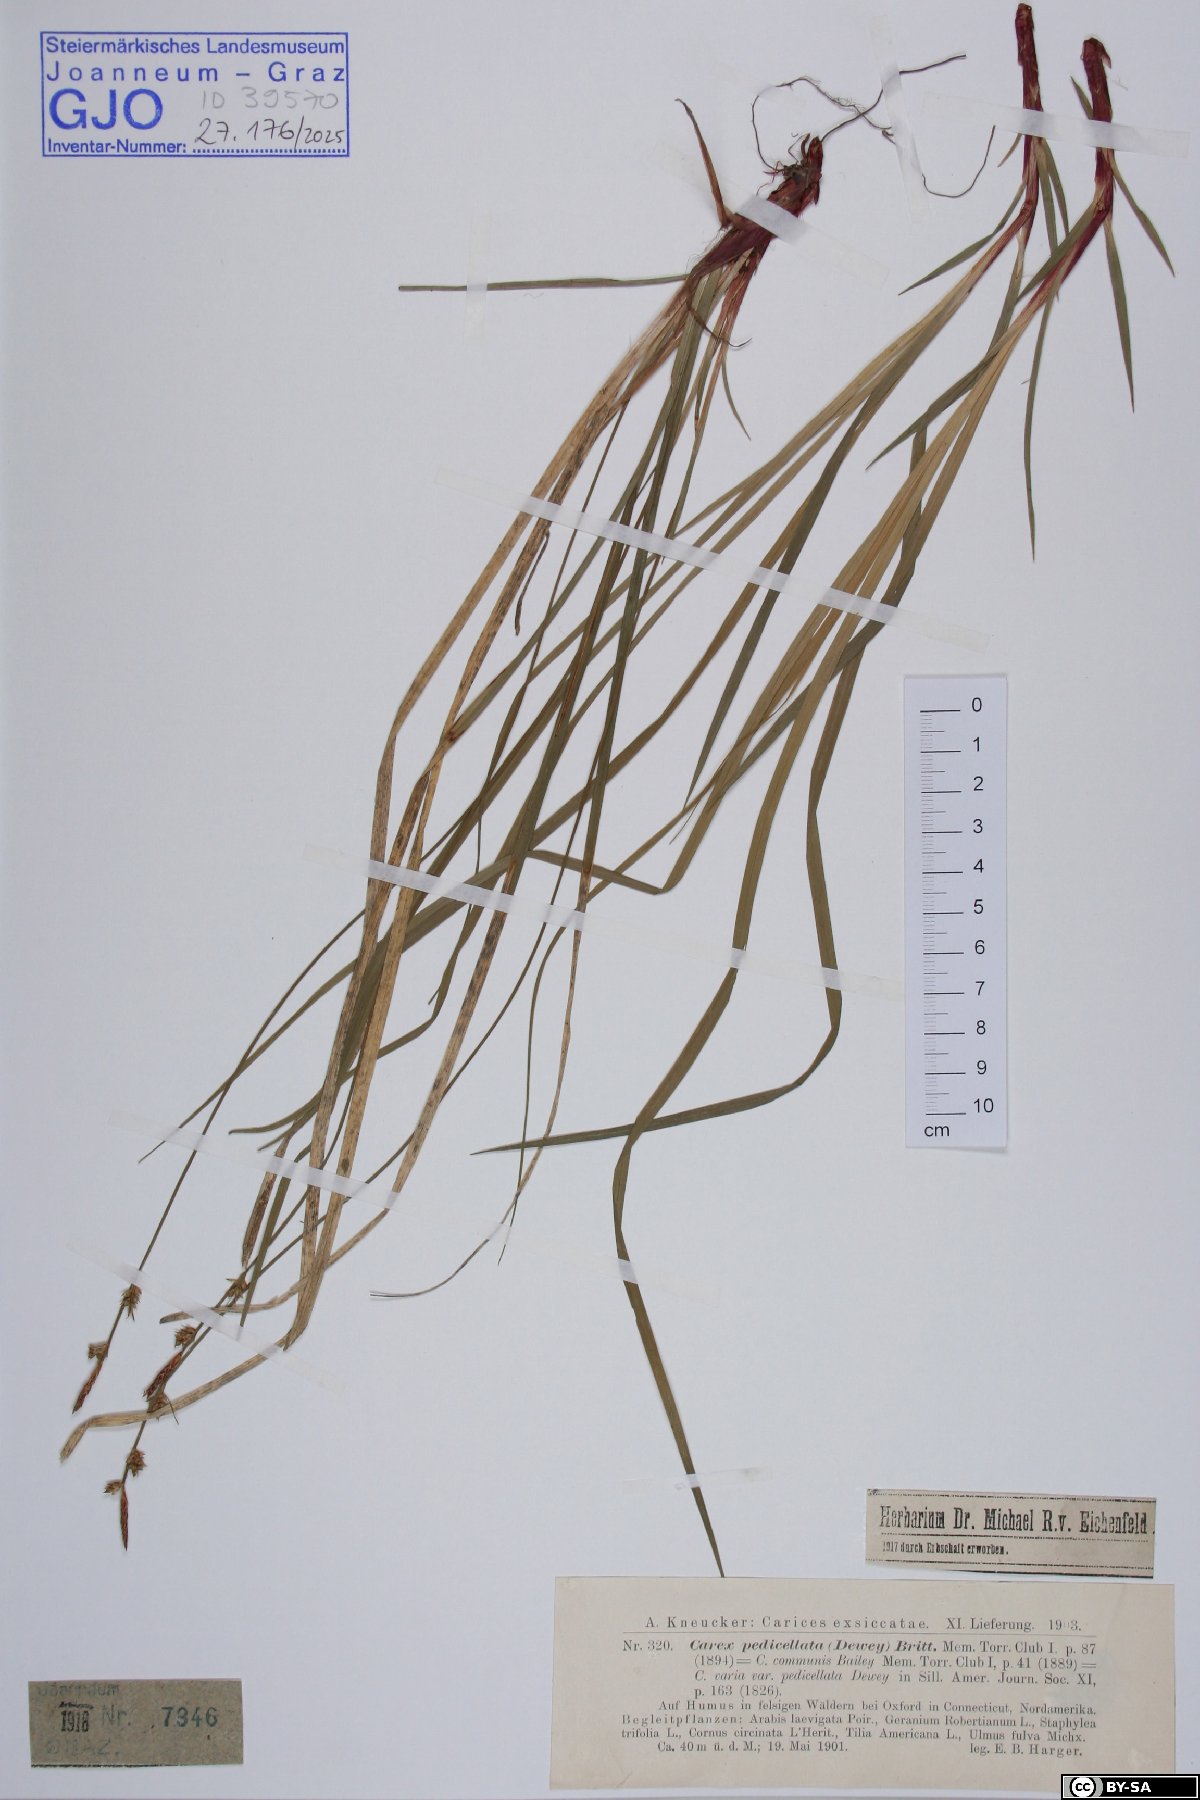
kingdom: Plantae
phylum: Tracheophyta
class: Liliopsida
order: Poales
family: Cyperaceae
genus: Carex
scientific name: Carex austrina
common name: Southern sedge
